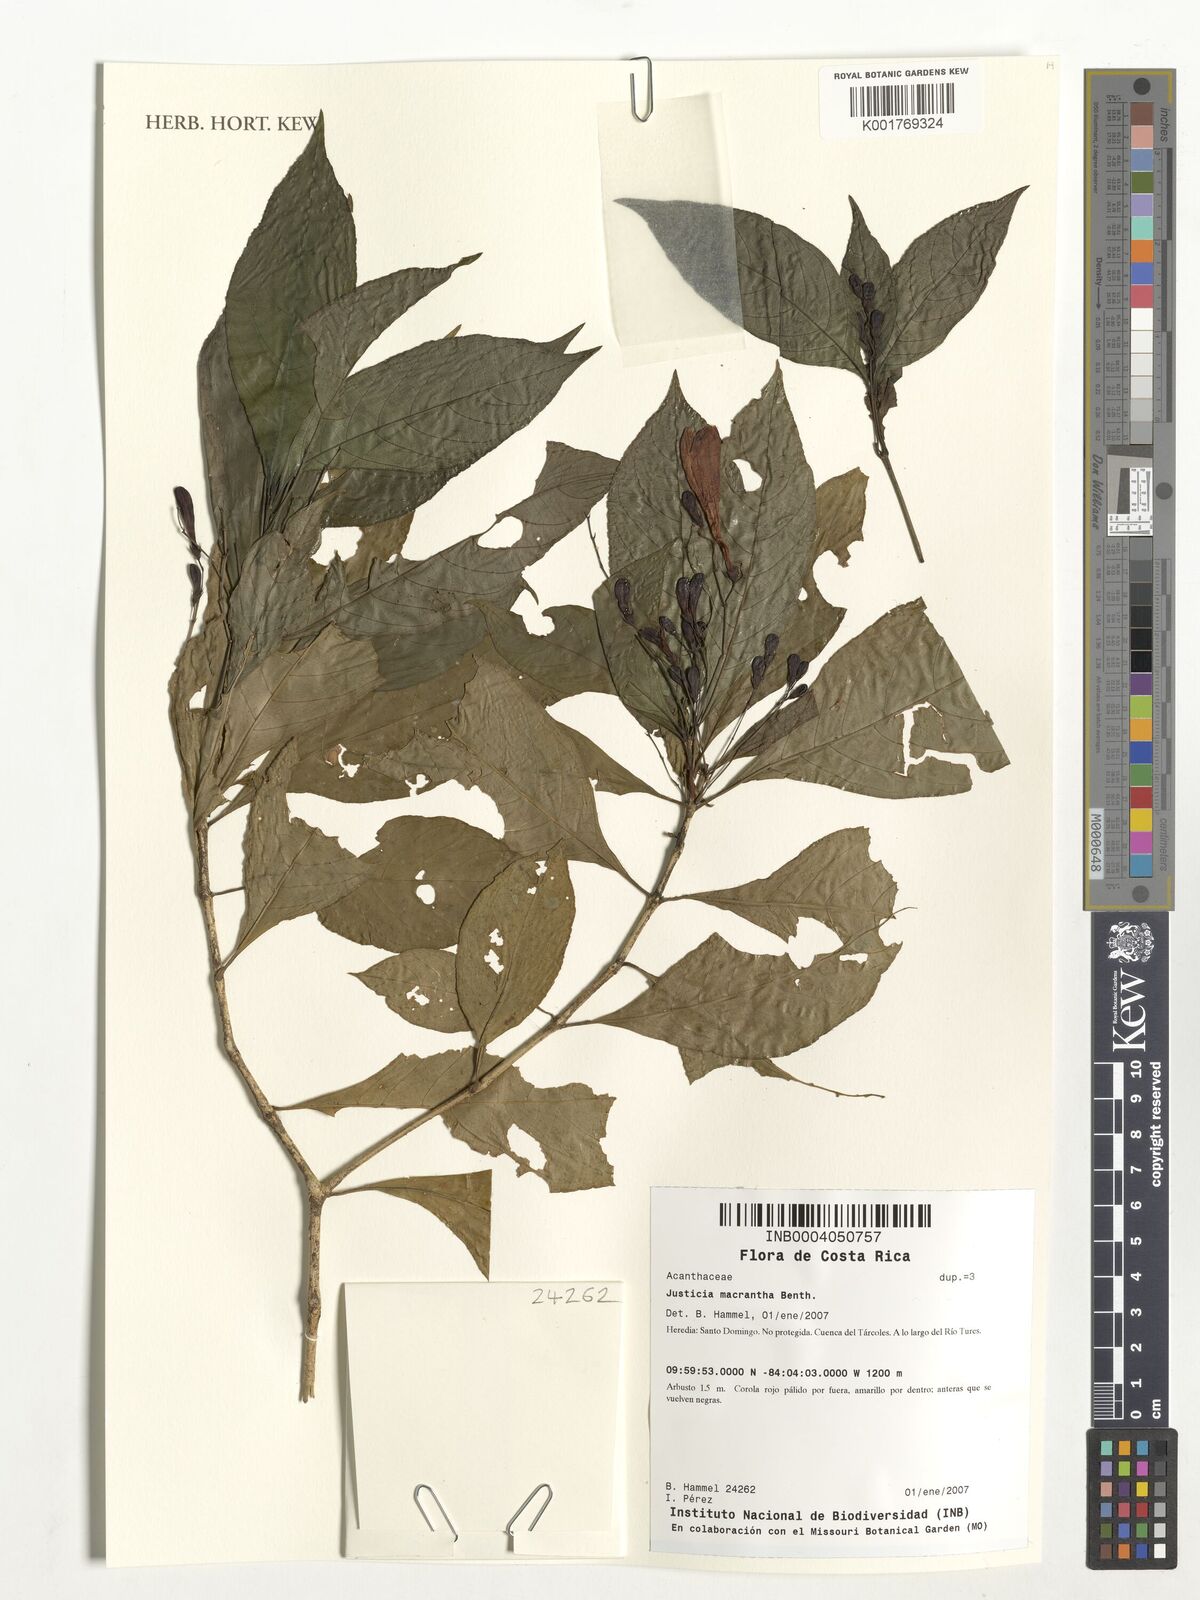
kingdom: Plantae
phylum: Tracheophyta
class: Magnoliopsida
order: Lamiales
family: Acanthaceae
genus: Justicia
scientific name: Justicia macrantha
